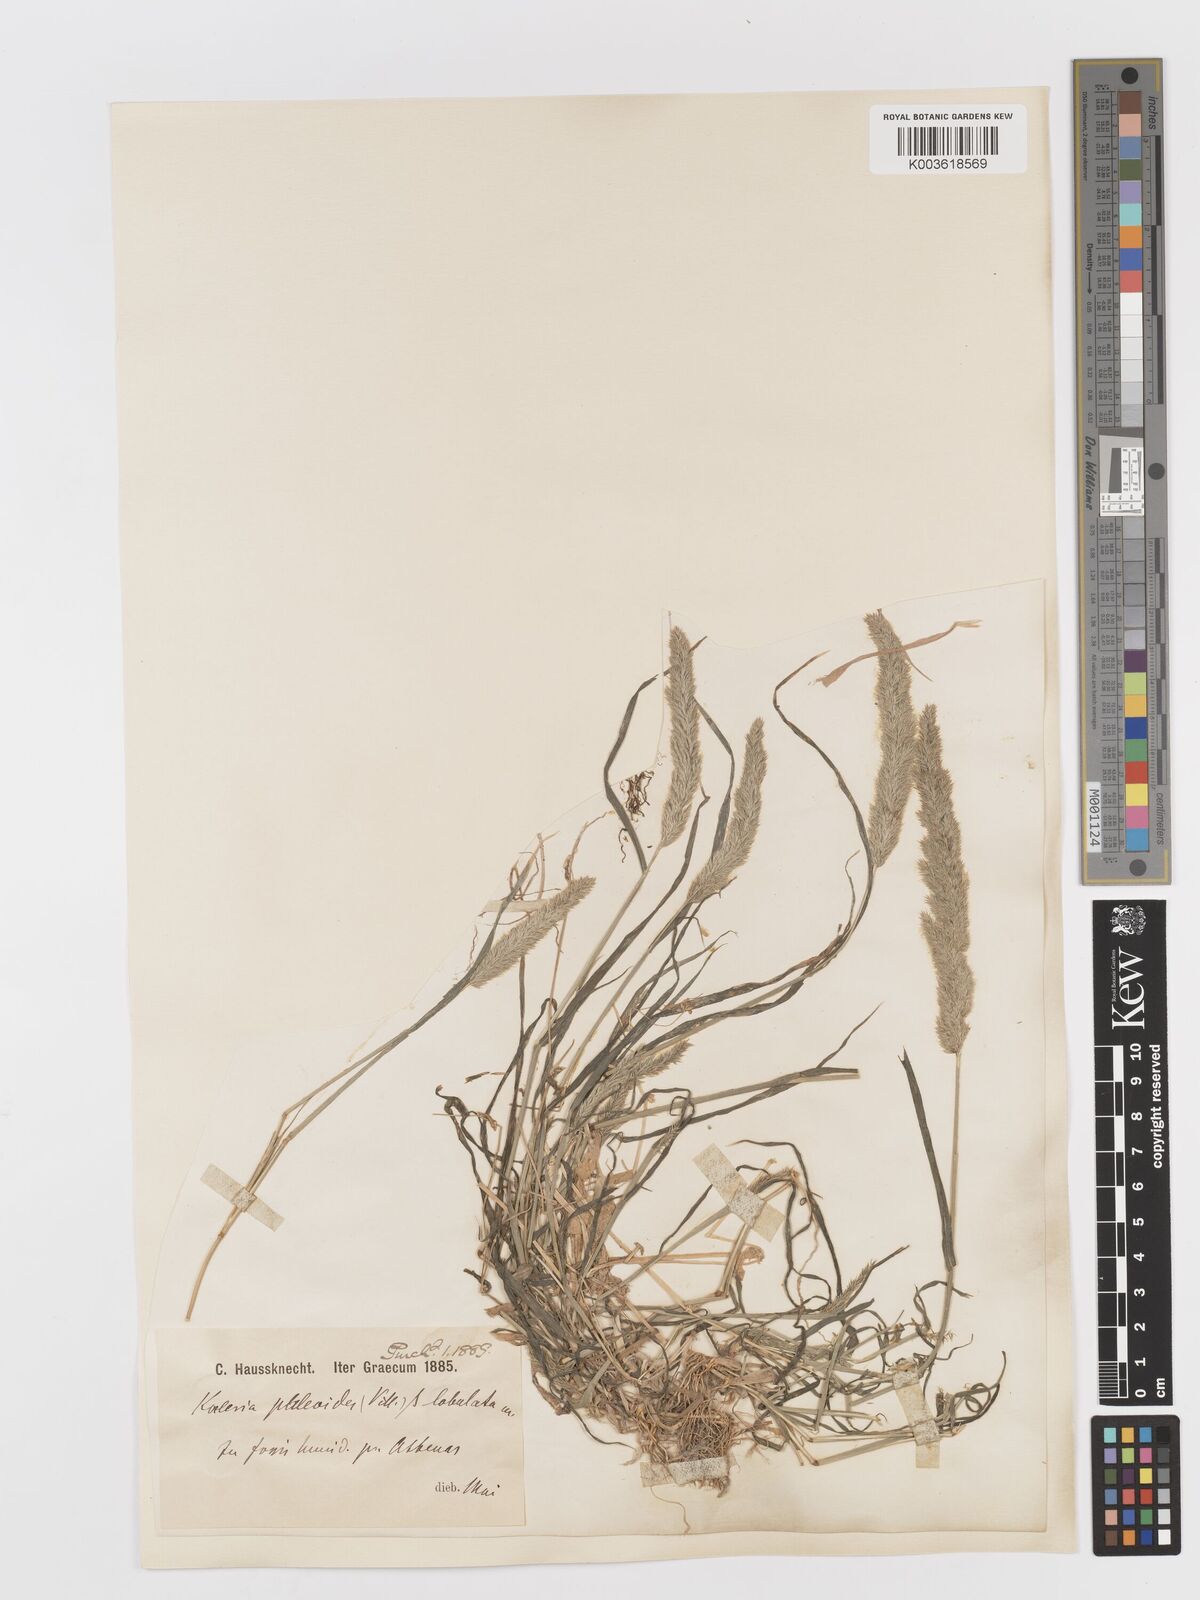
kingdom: Plantae
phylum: Tracheophyta
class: Liliopsida
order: Poales
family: Poaceae
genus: Rostraria
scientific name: Rostraria cristata
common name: Mediterranean hair-grass
